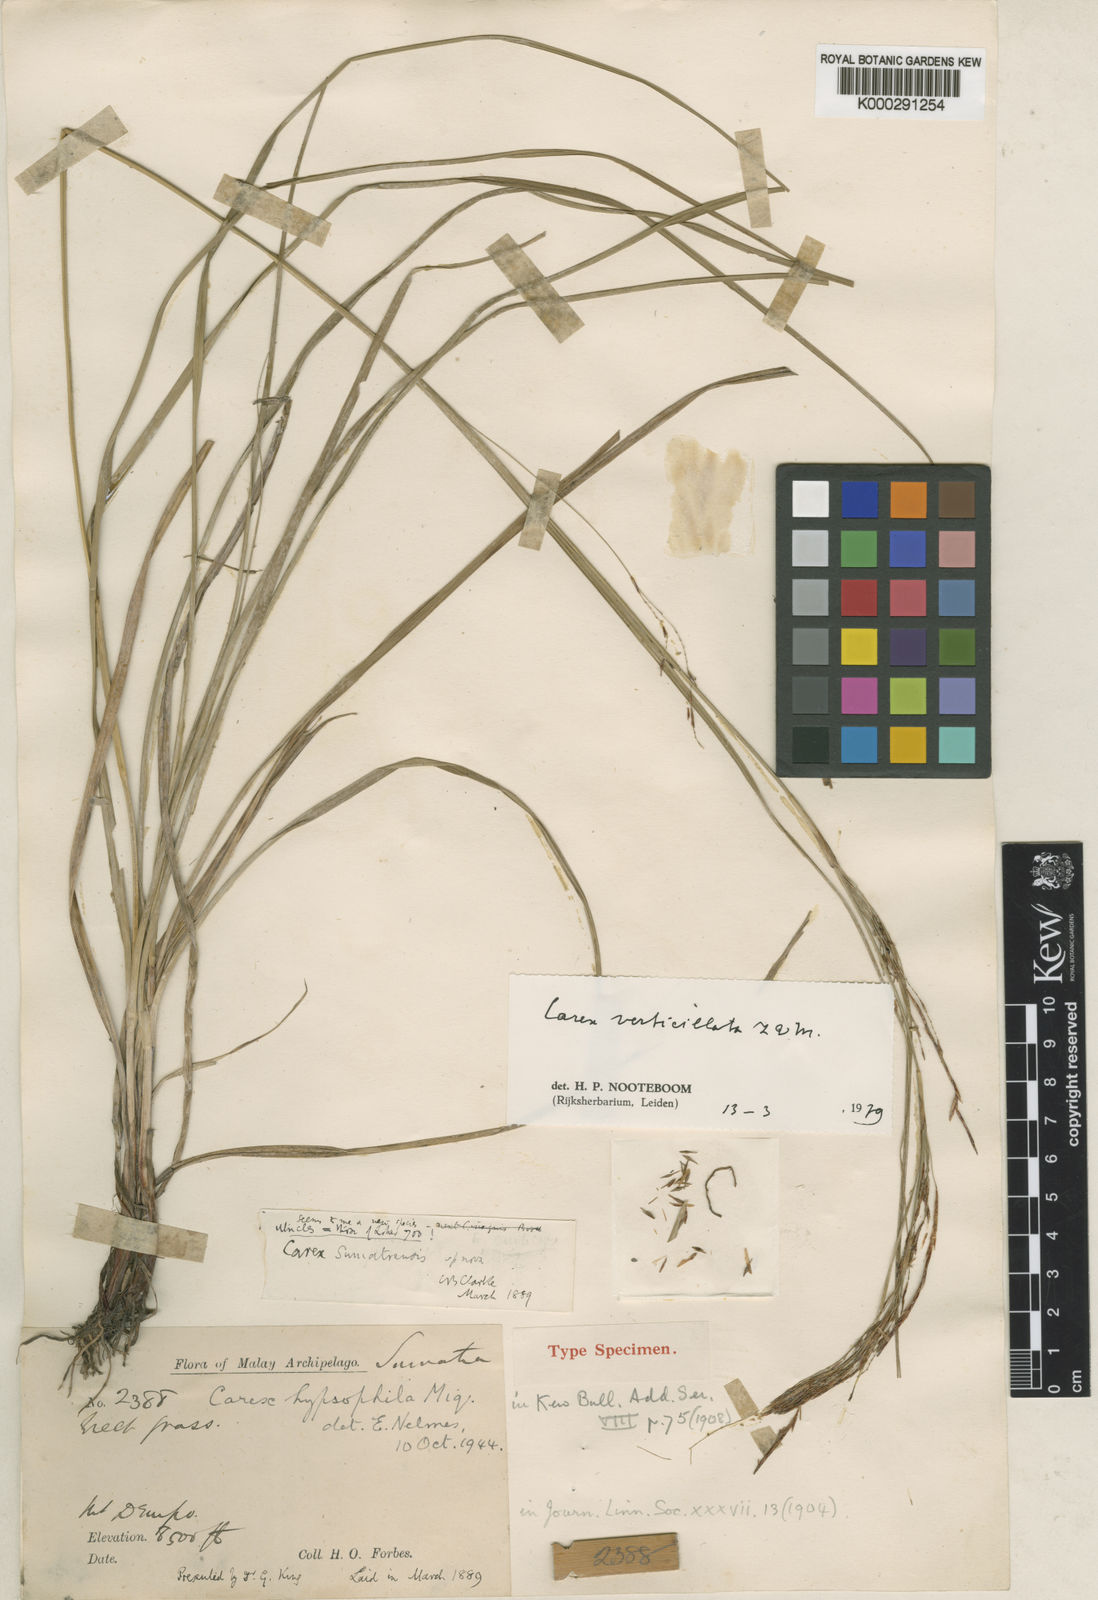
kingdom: Plantae
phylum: Tracheophyta
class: Liliopsida
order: Poales
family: Cyperaceae
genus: Carex
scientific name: Carex verticillata
